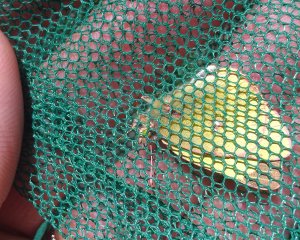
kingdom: Animalia
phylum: Arthropoda
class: Insecta
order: Lepidoptera
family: Pieridae
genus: Colias
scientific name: Colias philodice
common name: Clouded Sulphur
